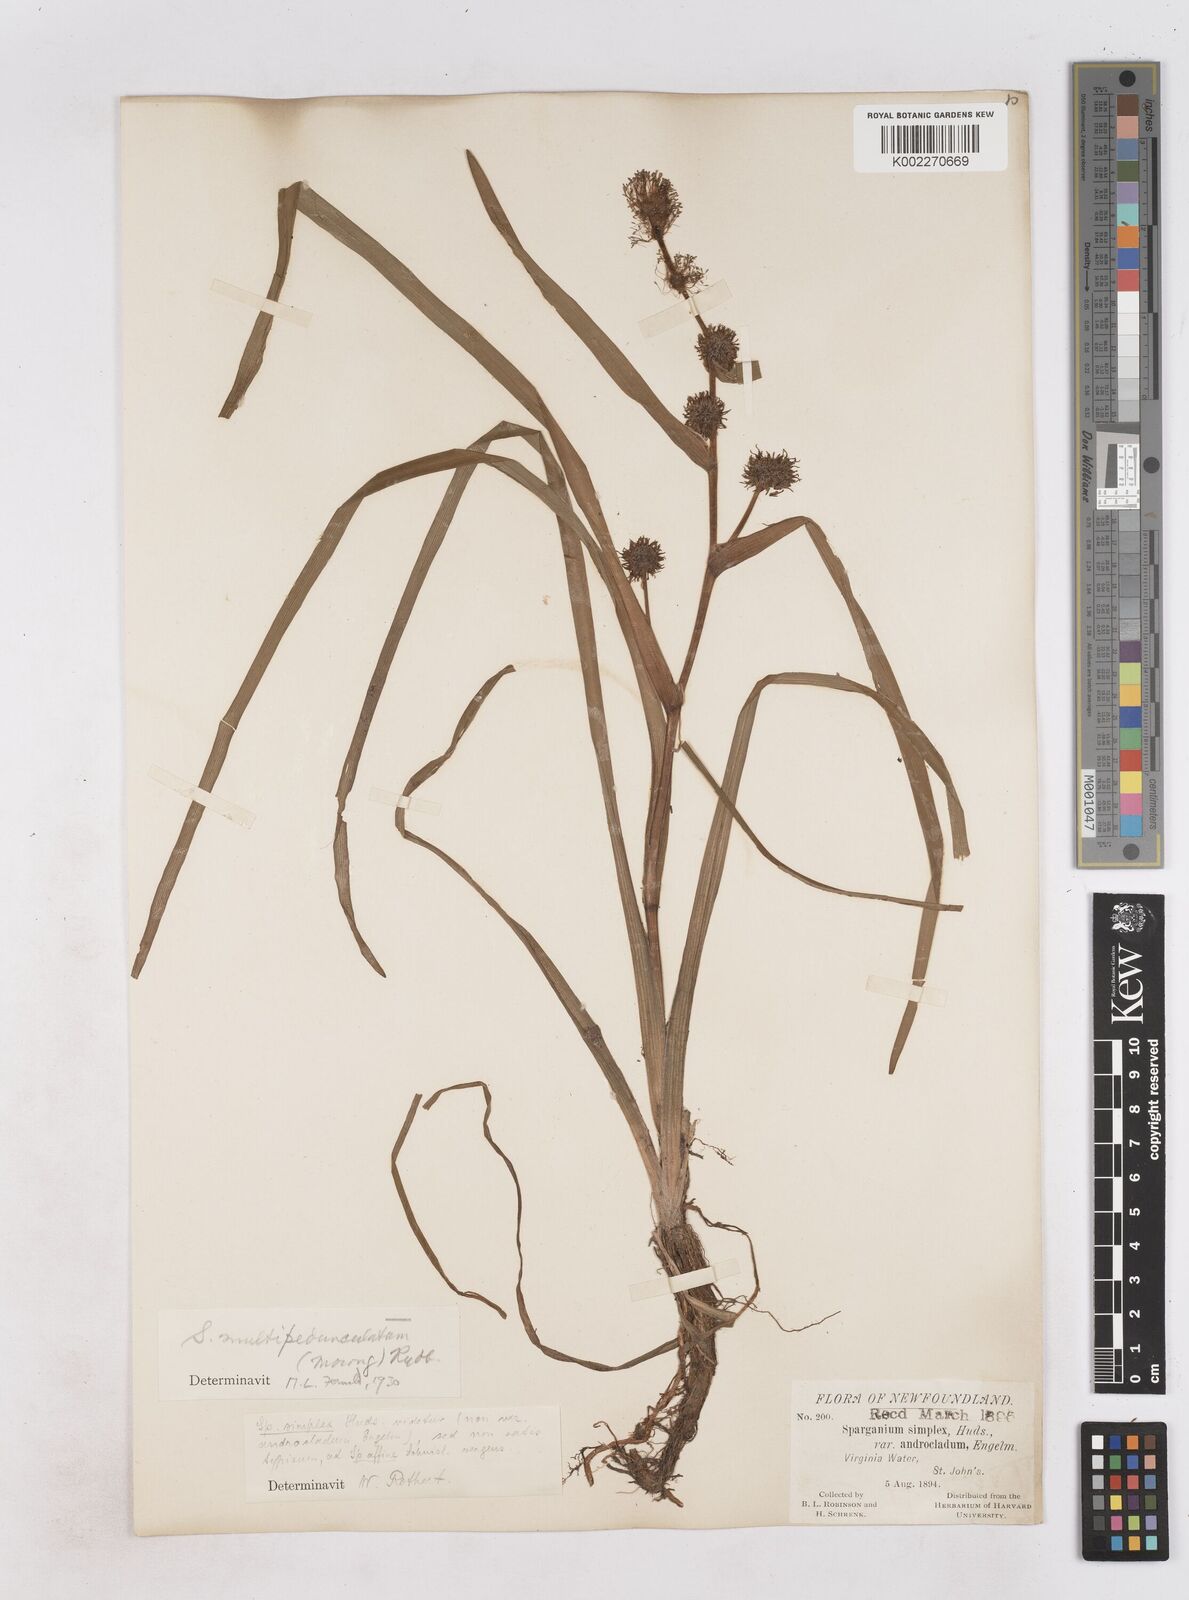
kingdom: Plantae
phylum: Tracheophyta
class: Liliopsida
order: Poales
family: Typhaceae
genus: Sparganium
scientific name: Sparganium emersum
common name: Unbranched bur-reed
